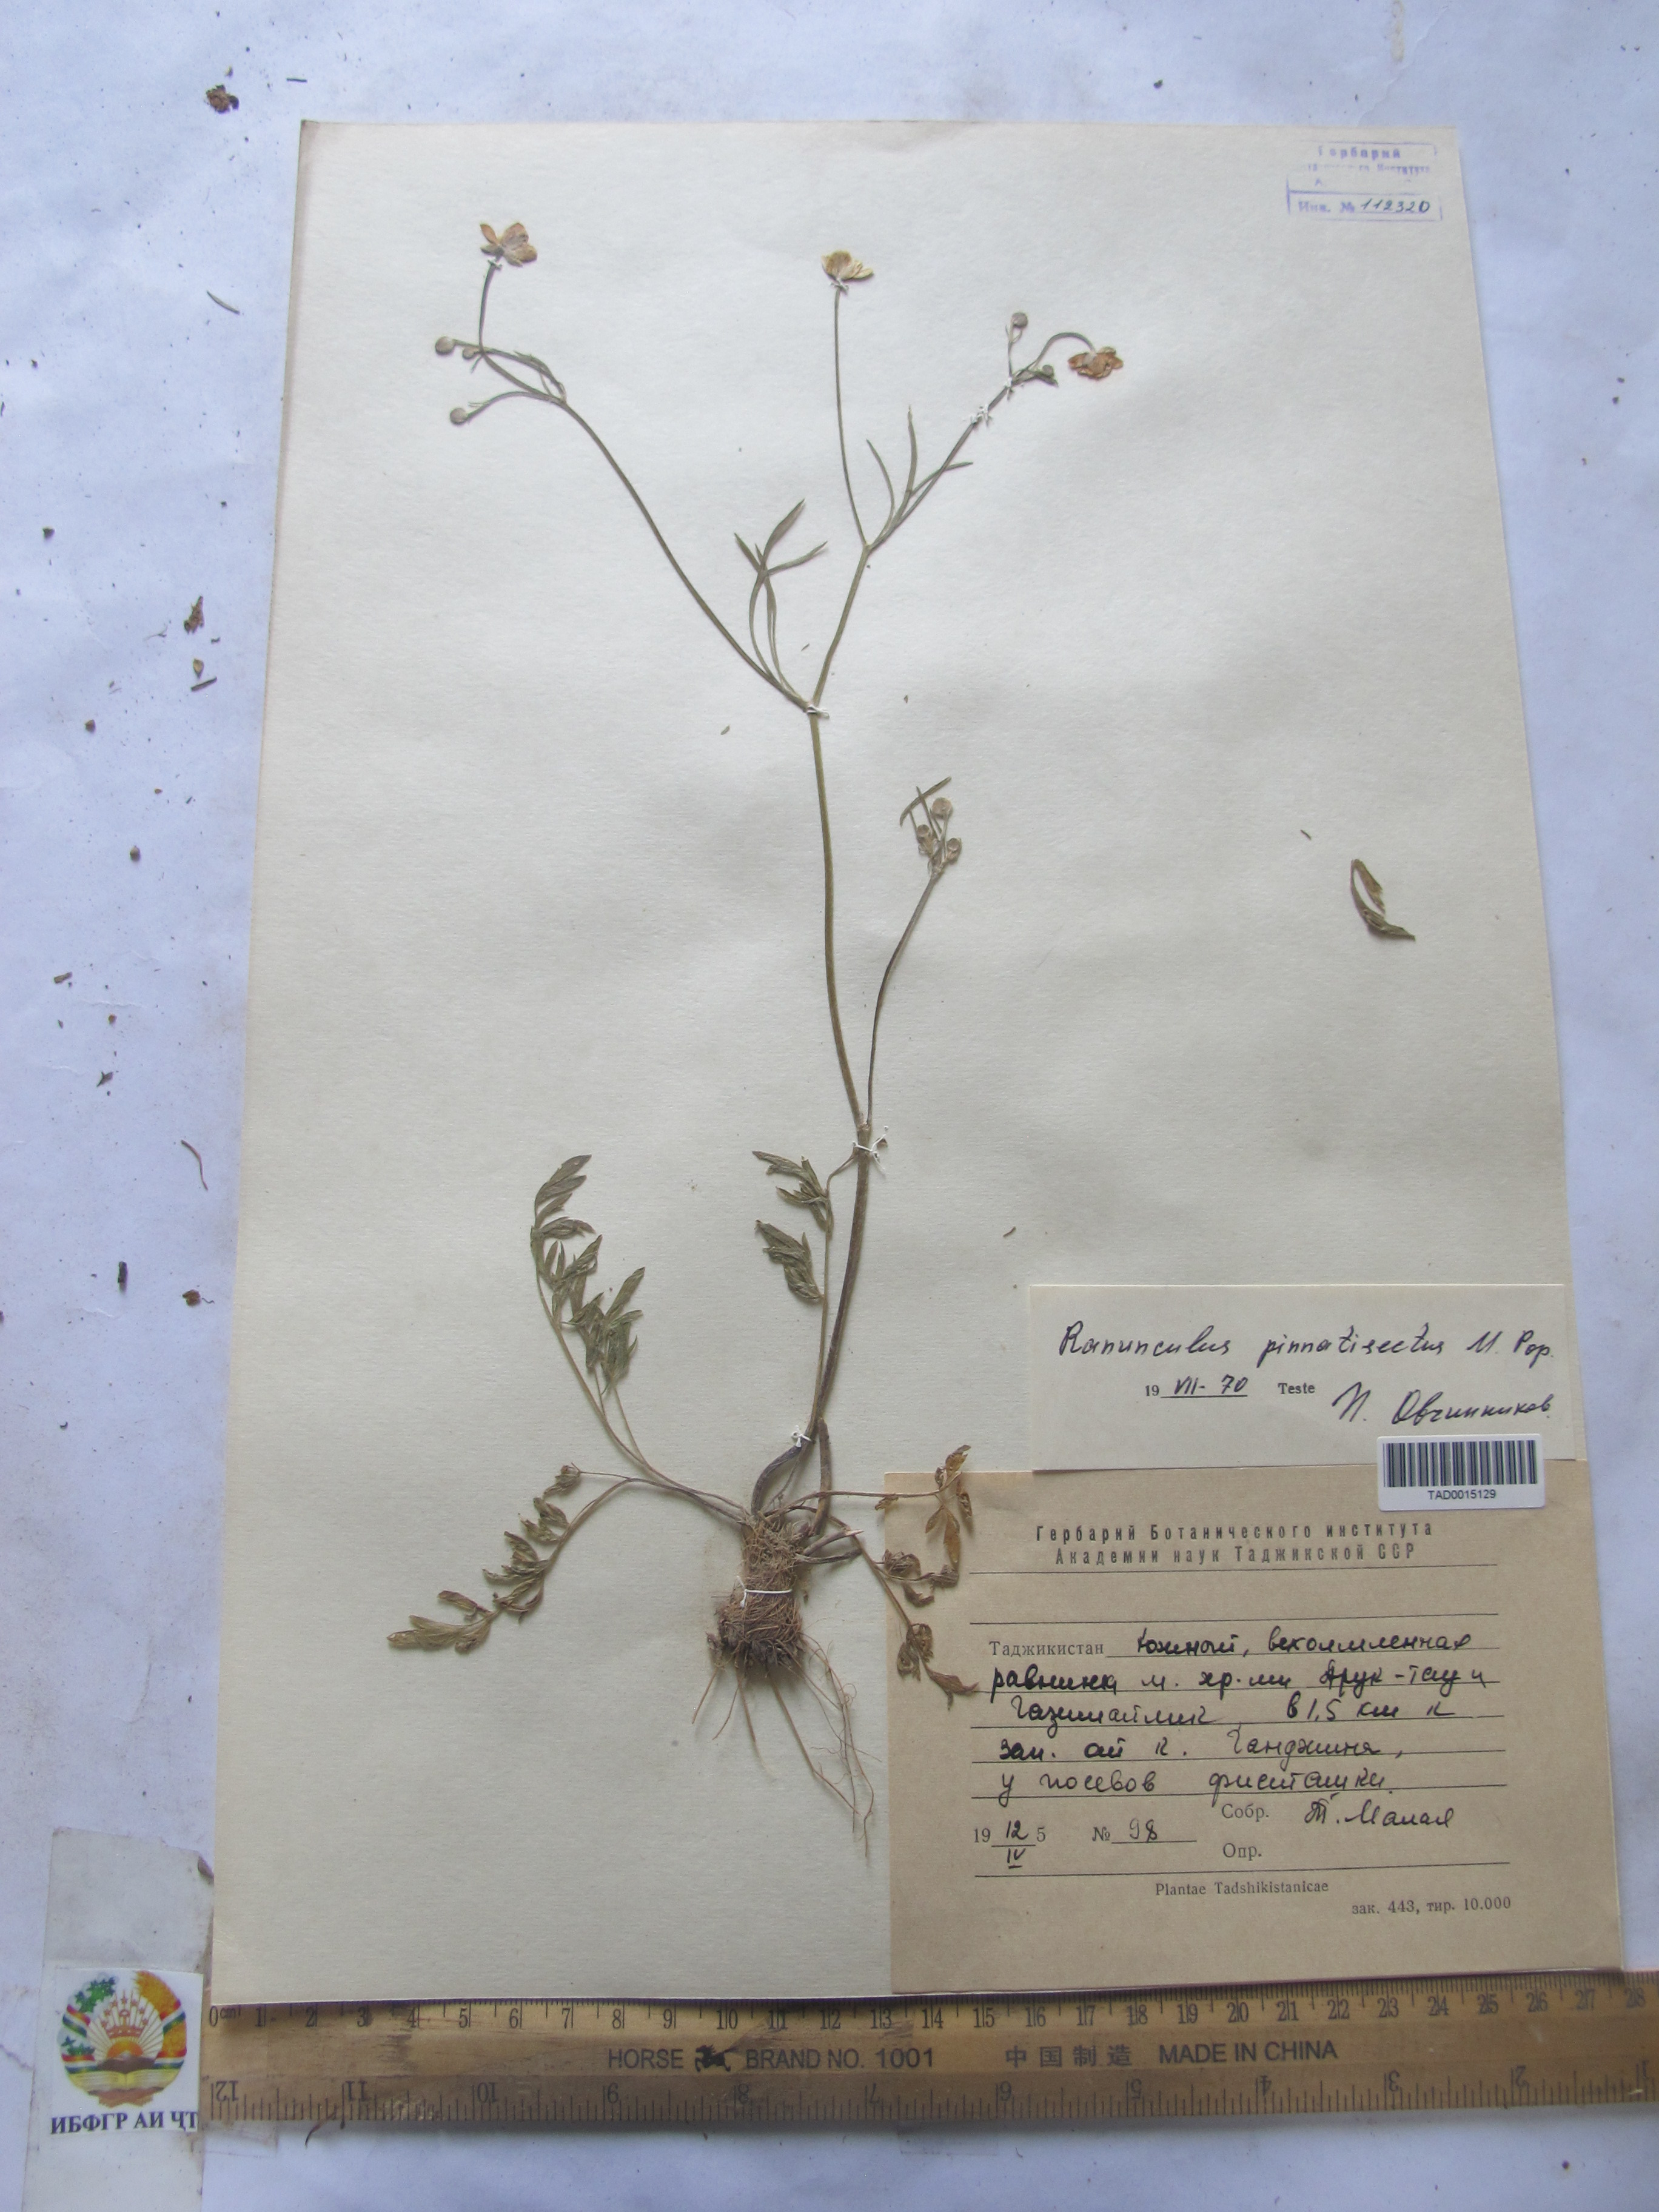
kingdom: Plantae
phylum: Tracheophyta
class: Magnoliopsida
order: Ranunculales
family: Ranunculaceae
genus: Ranunculus
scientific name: Ranunculus pinnatisectus
